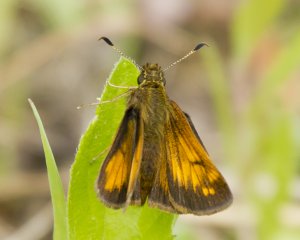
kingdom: Animalia
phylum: Arthropoda
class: Insecta
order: Lepidoptera
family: Hesperiidae
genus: Lon
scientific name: Lon hobomok
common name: Hobomok Skipper
